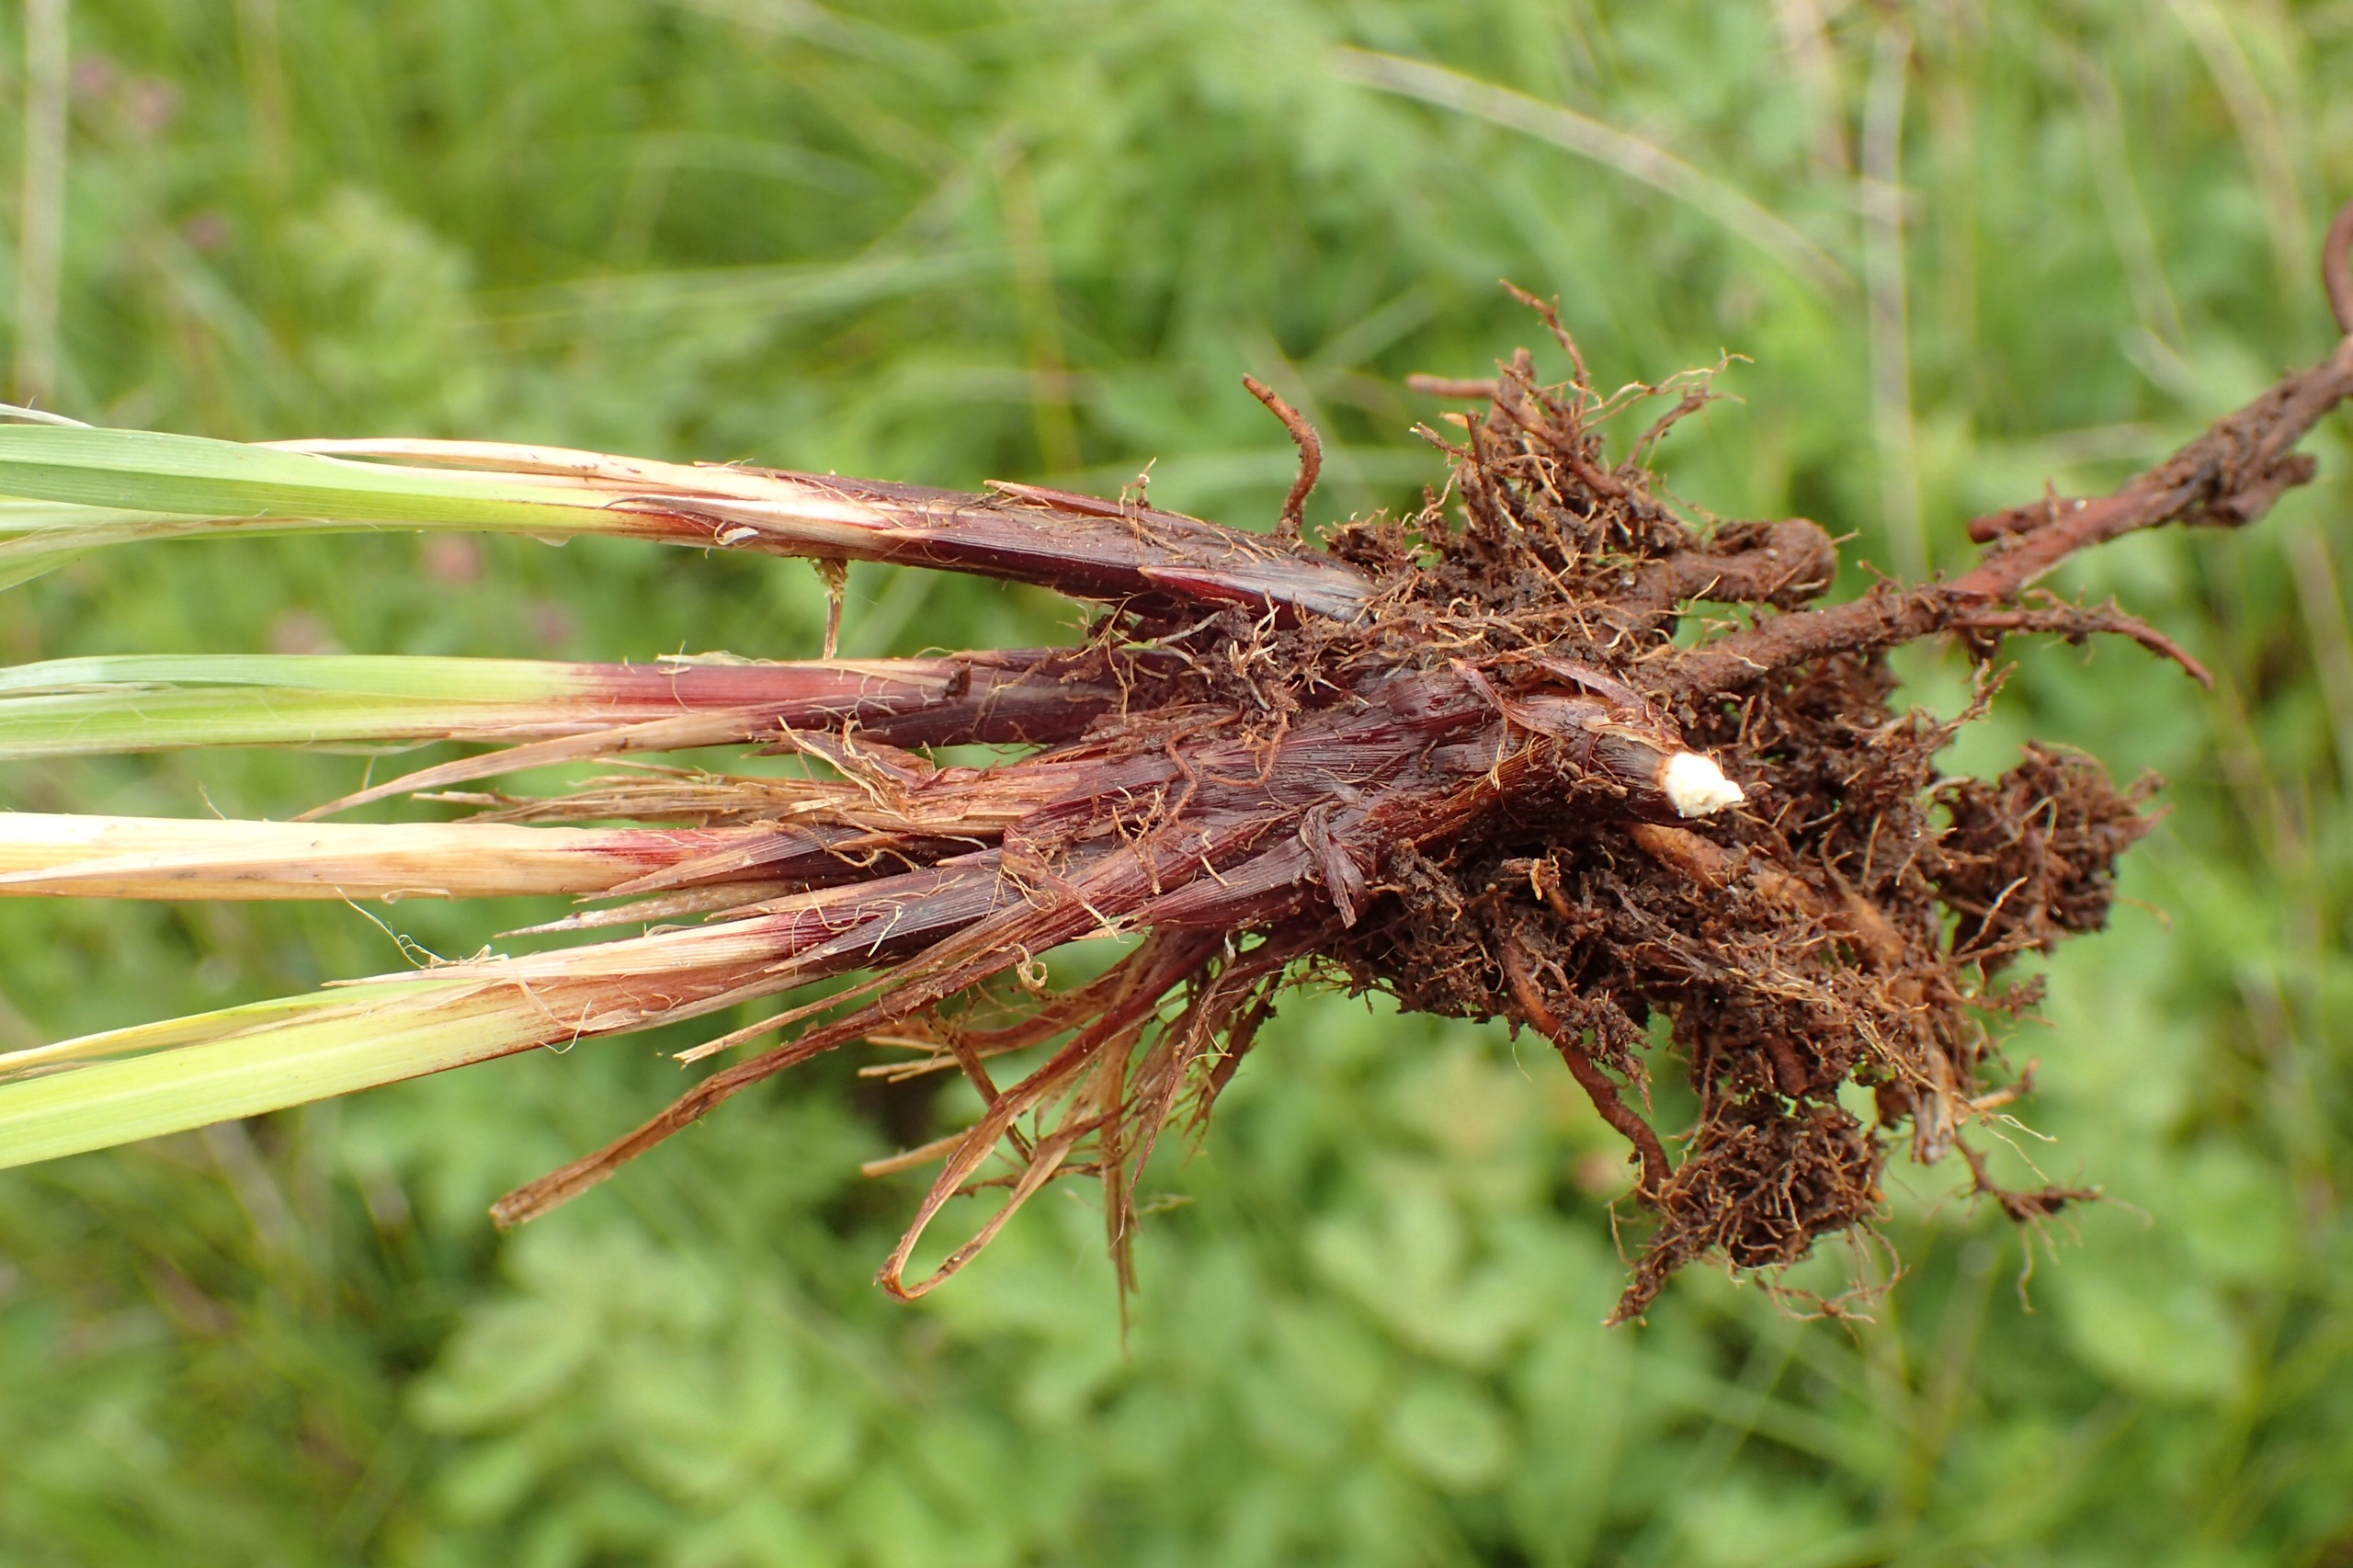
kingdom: Plantae
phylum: Tracheophyta
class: Liliopsida
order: Poales
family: Cyperaceae
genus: Carex
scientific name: Carex cespitosa
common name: Tue-star
